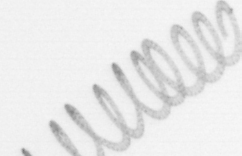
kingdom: Chromista
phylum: Ochrophyta
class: Bacillariophyceae
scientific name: Bacillariophyceae
